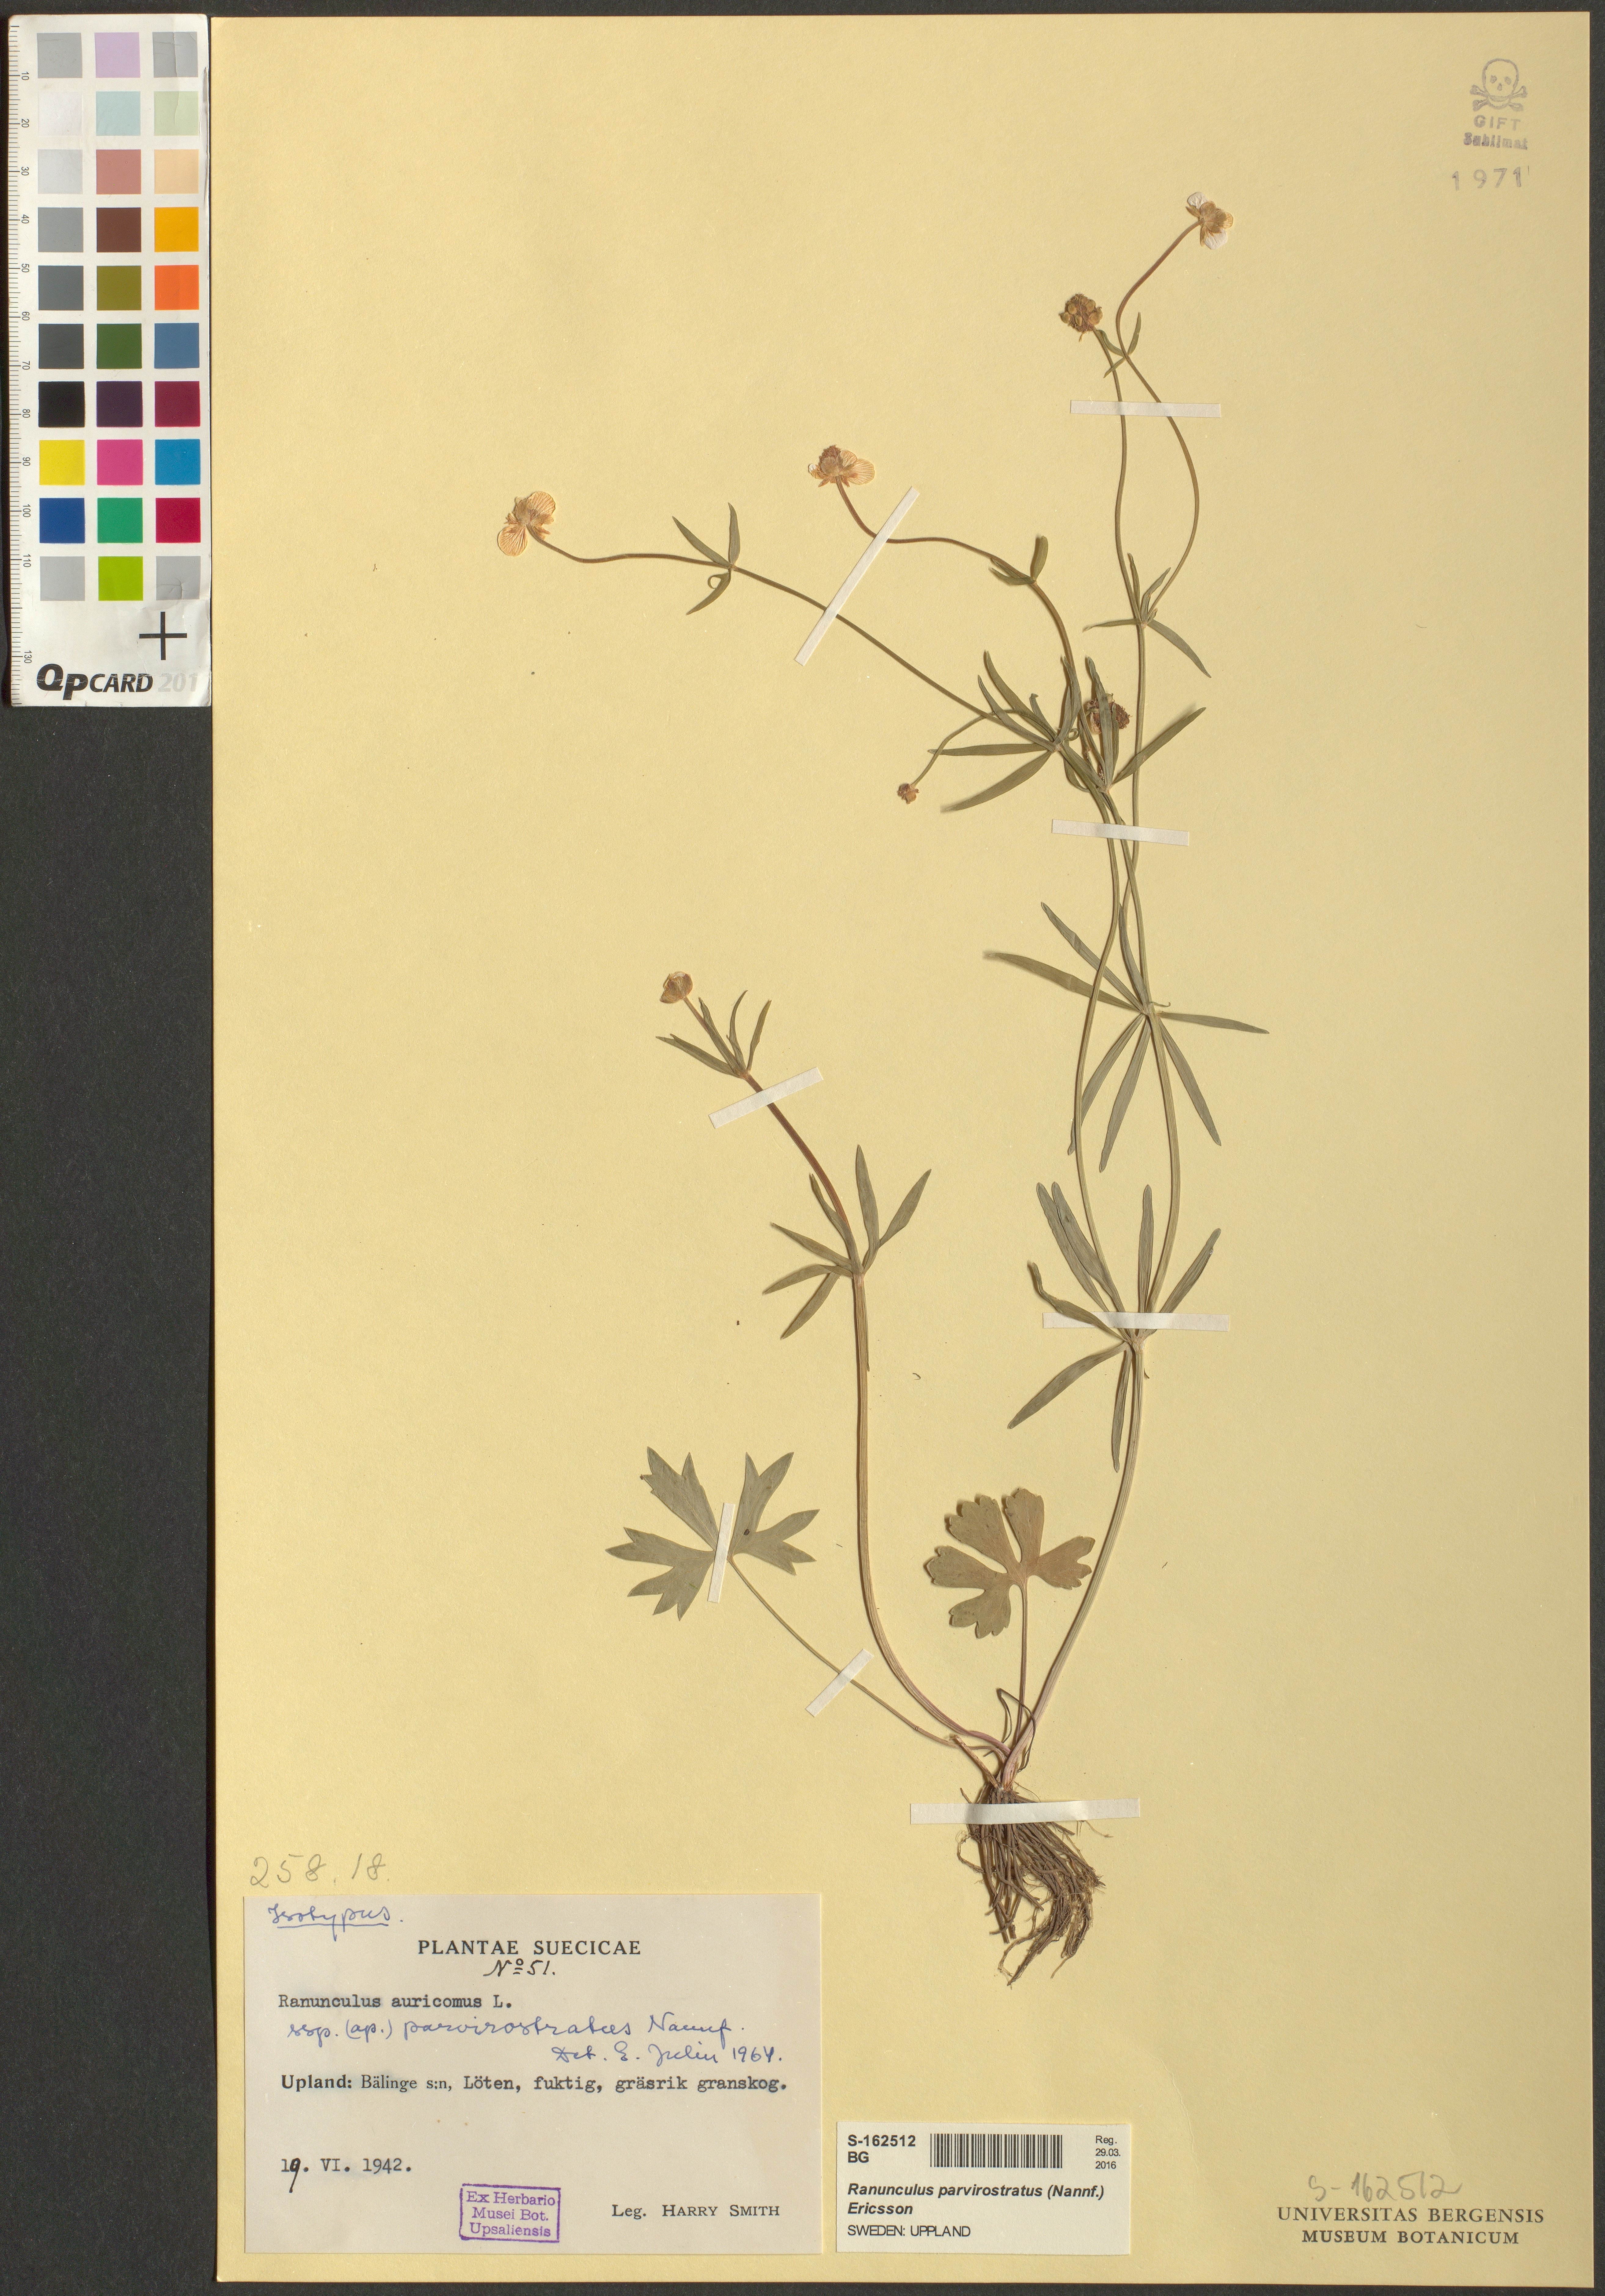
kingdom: Plantae
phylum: Tracheophyta
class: Magnoliopsida
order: Ranunculales
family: Ranunculaceae
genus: Ranunculus
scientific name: Ranunculus parvirostratus
